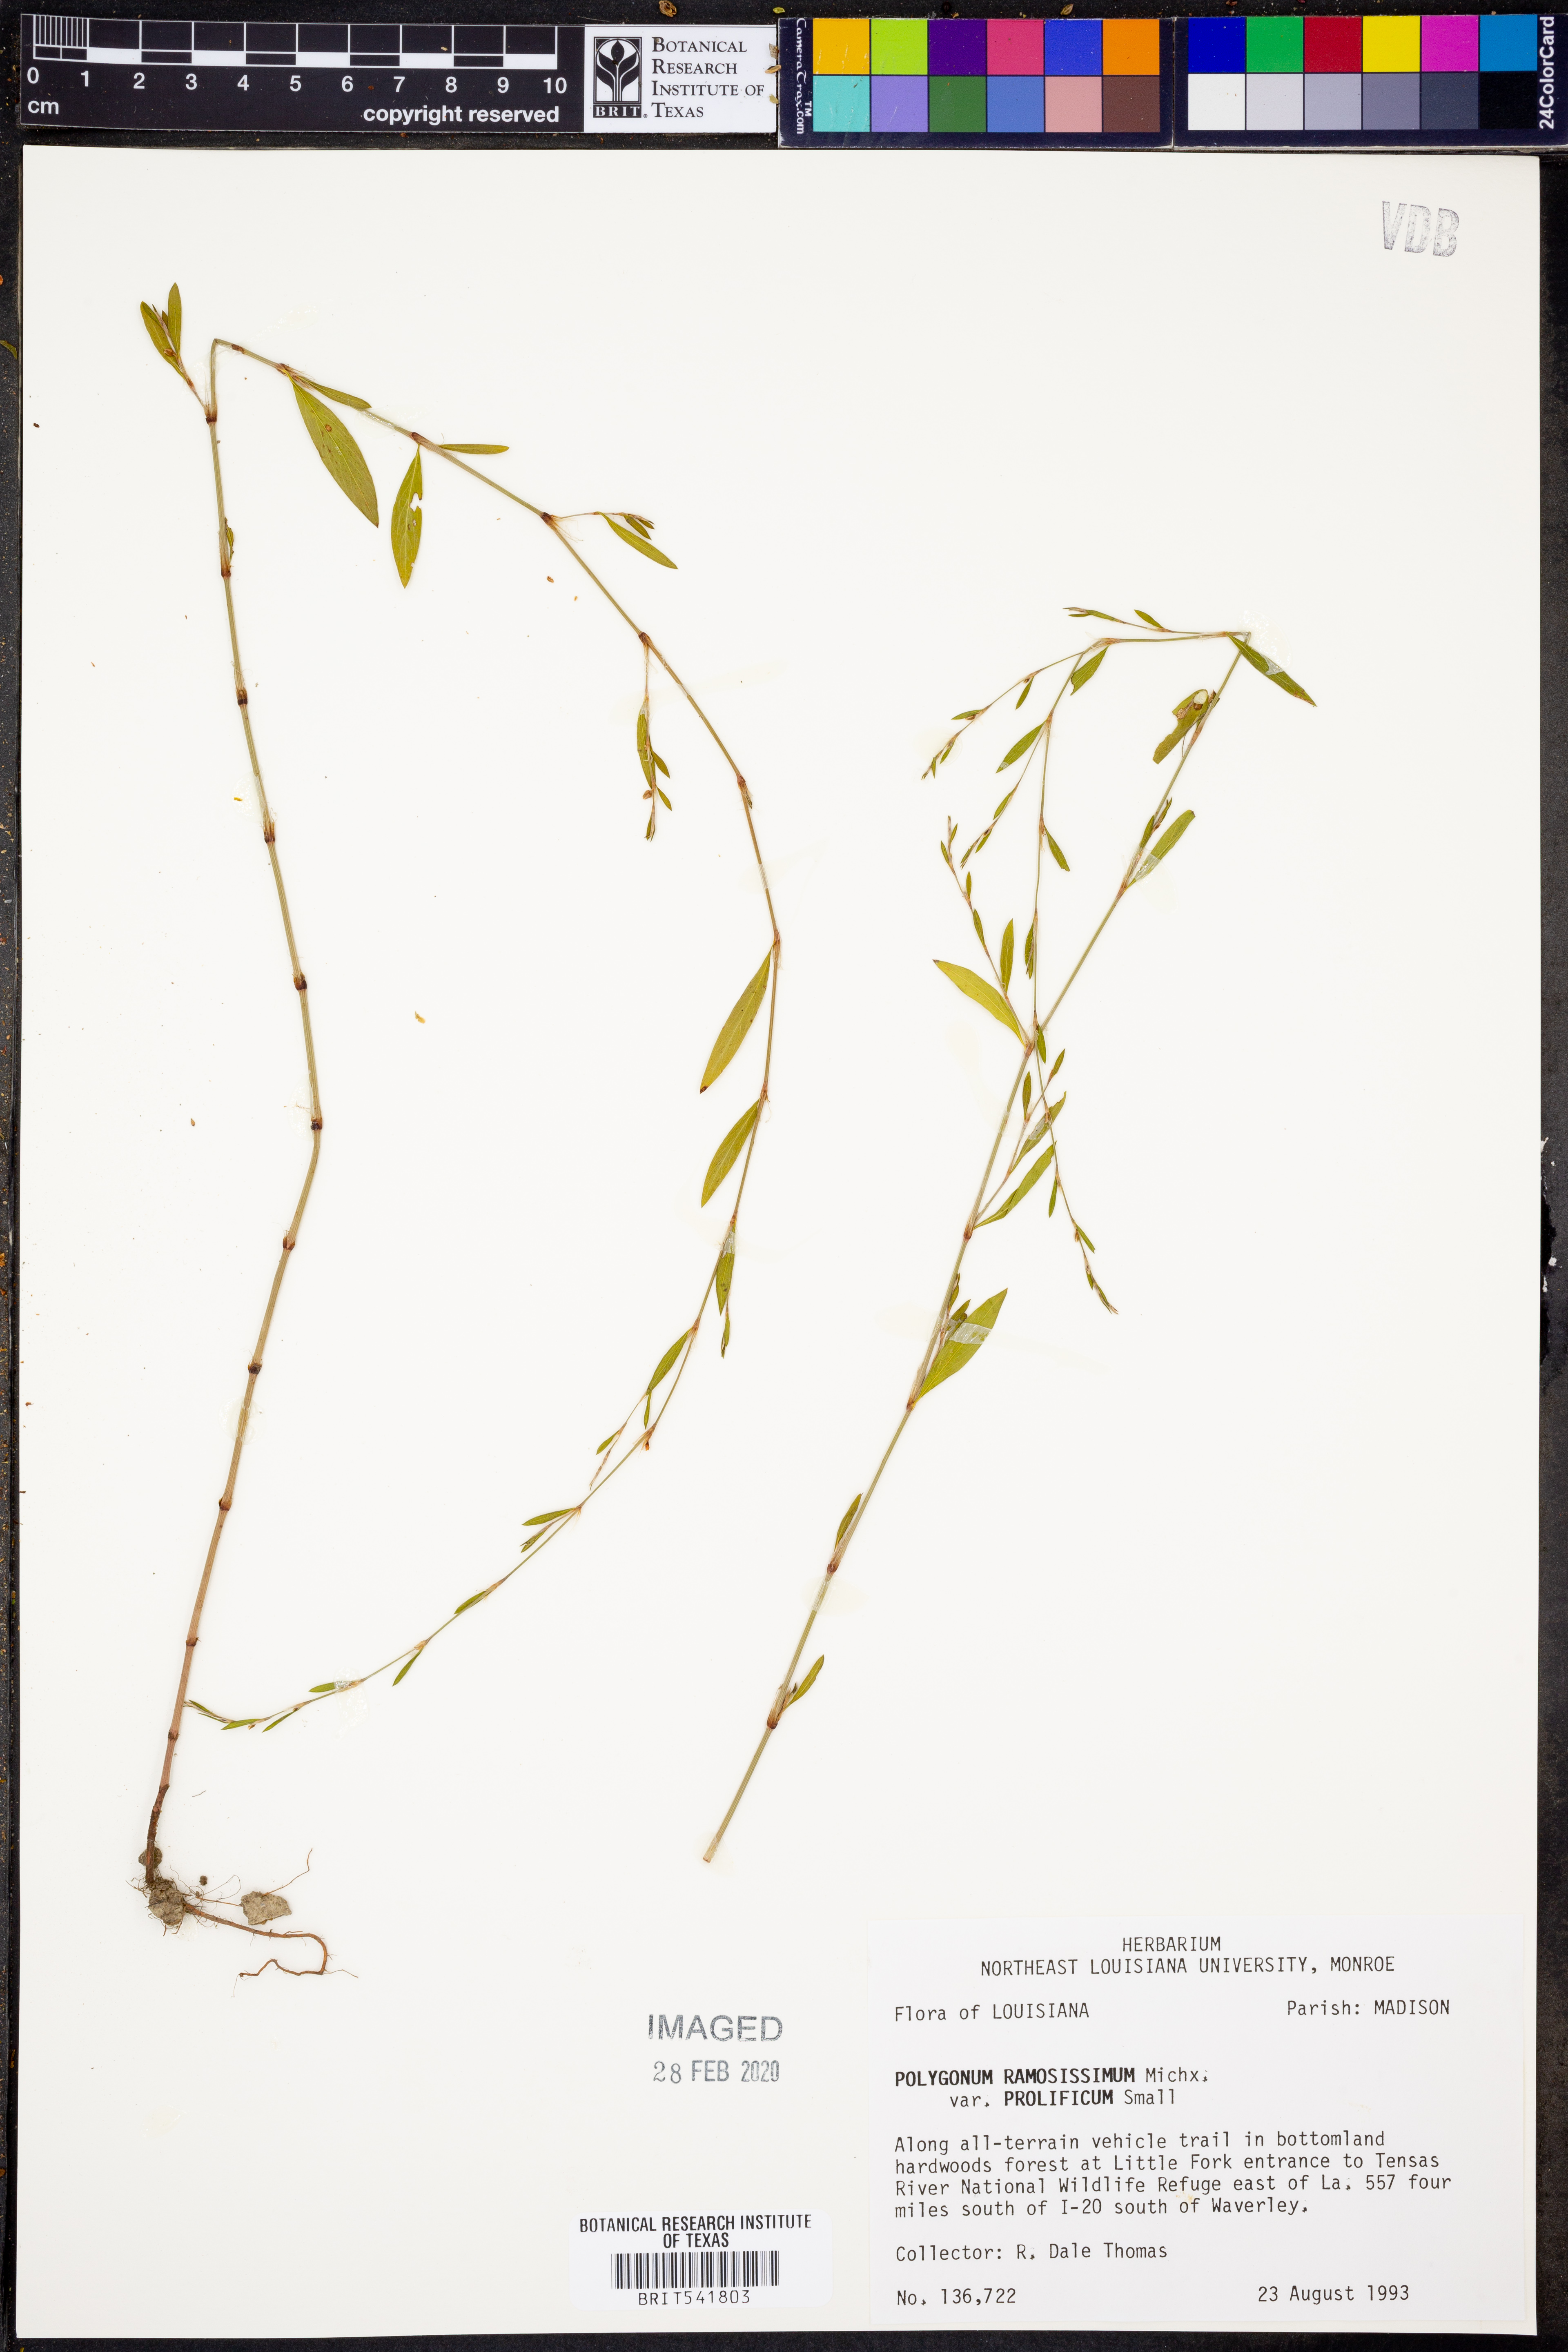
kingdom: Plantae
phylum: Tracheophyta
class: Magnoliopsida
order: Caryophyllales
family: Polygonaceae
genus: Polygonum
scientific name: Polygonum ramosissimum
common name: Bushy knotweed
